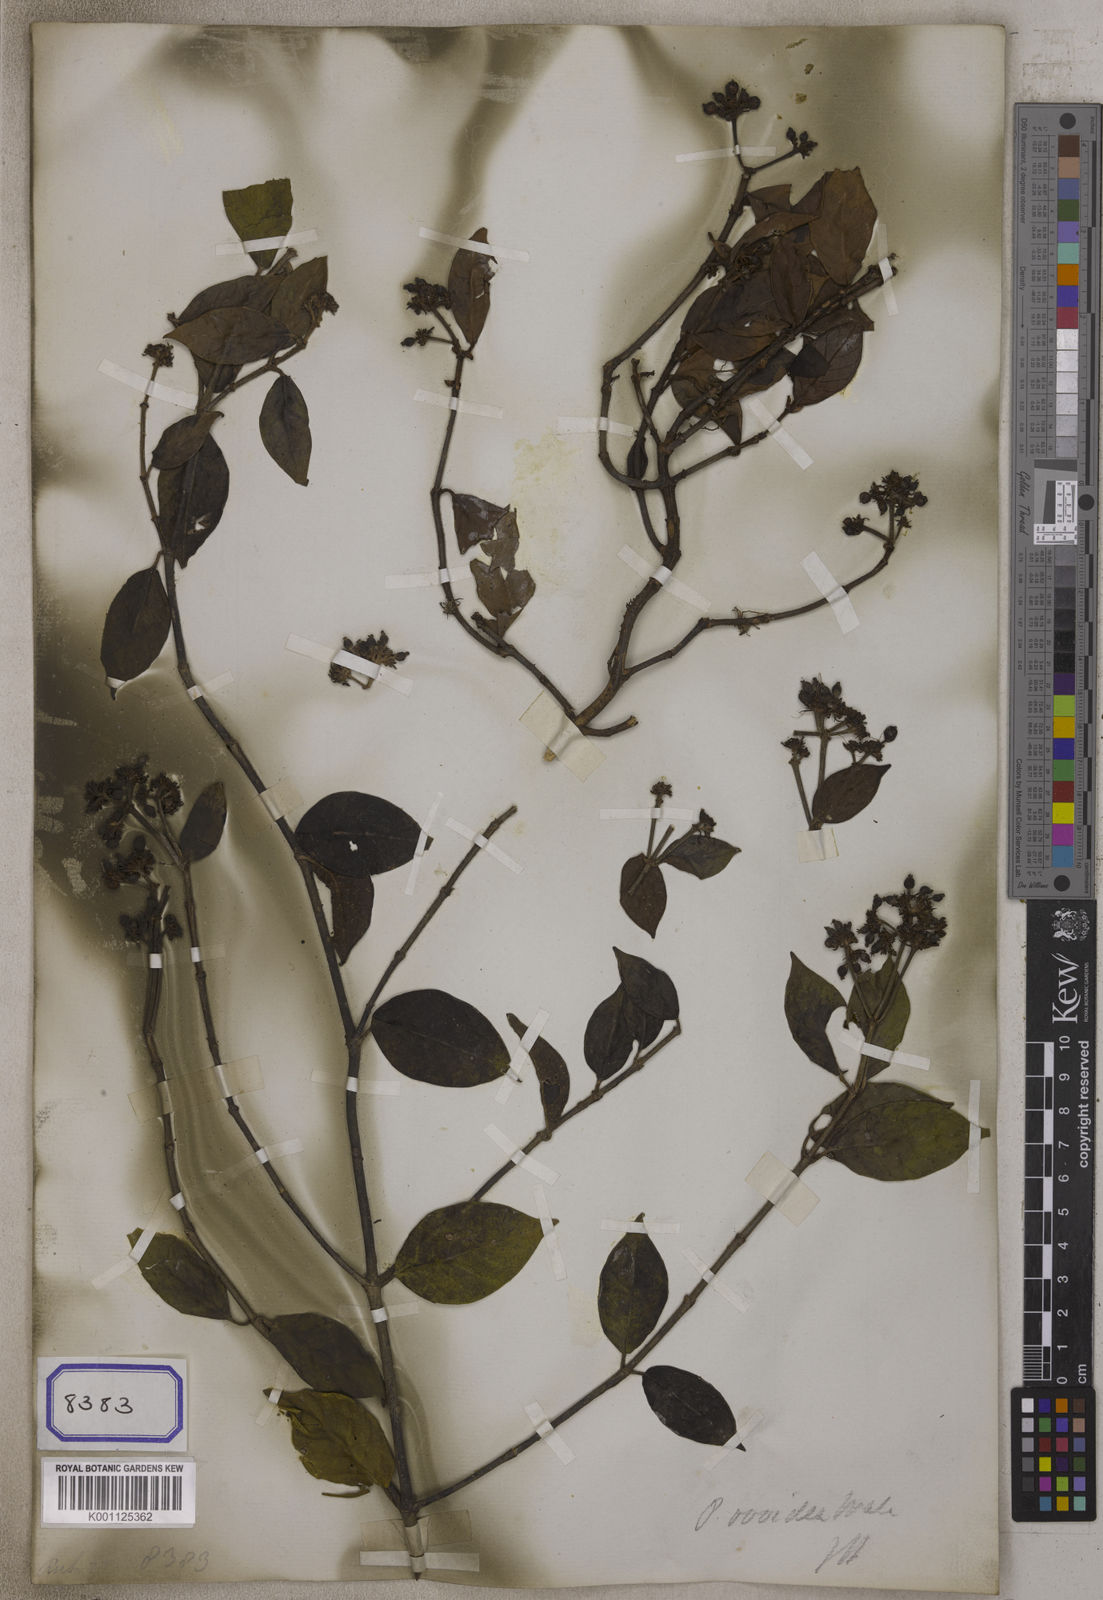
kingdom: Plantae
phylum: Tracheophyta
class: Magnoliopsida
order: Gentianales
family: Rubiaceae
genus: Psychotria
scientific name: Psychotria
